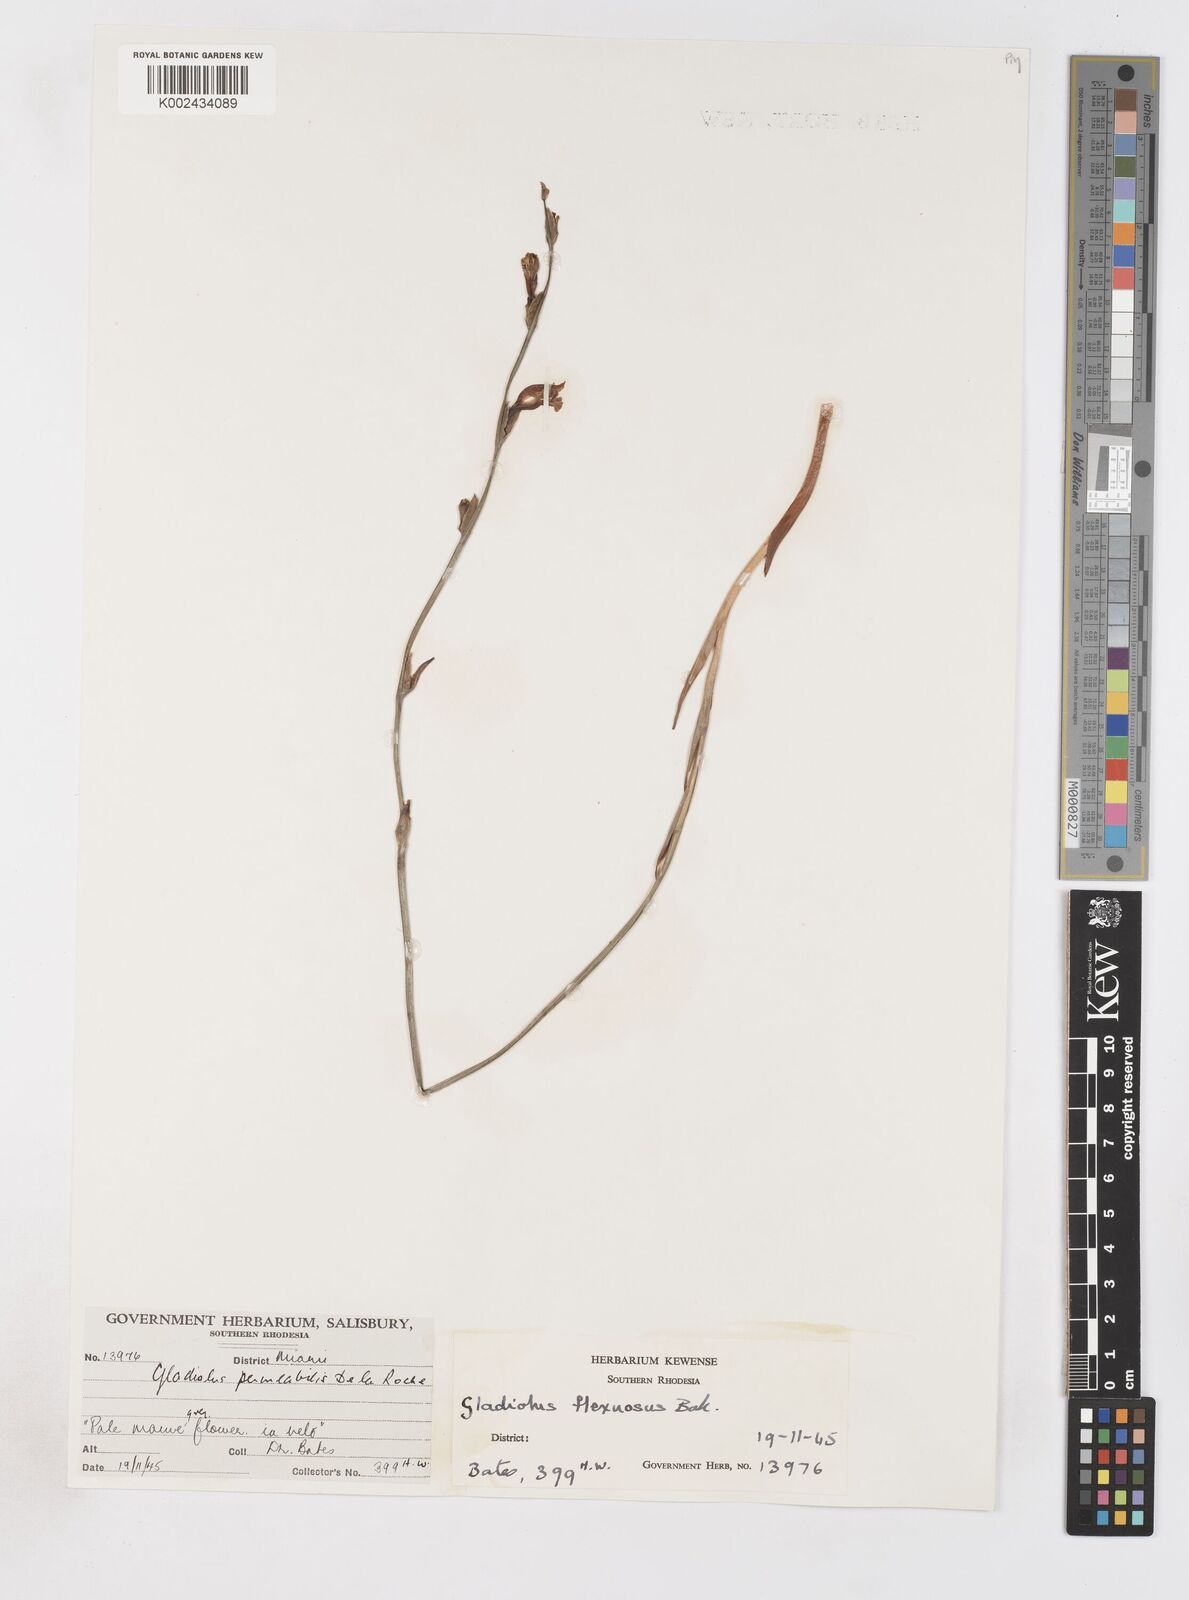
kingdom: Plantae
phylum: Tracheophyta
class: Liliopsida
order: Asparagales
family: Iridaceae
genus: Gladiolus
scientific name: Gladiolus atropurpureus
